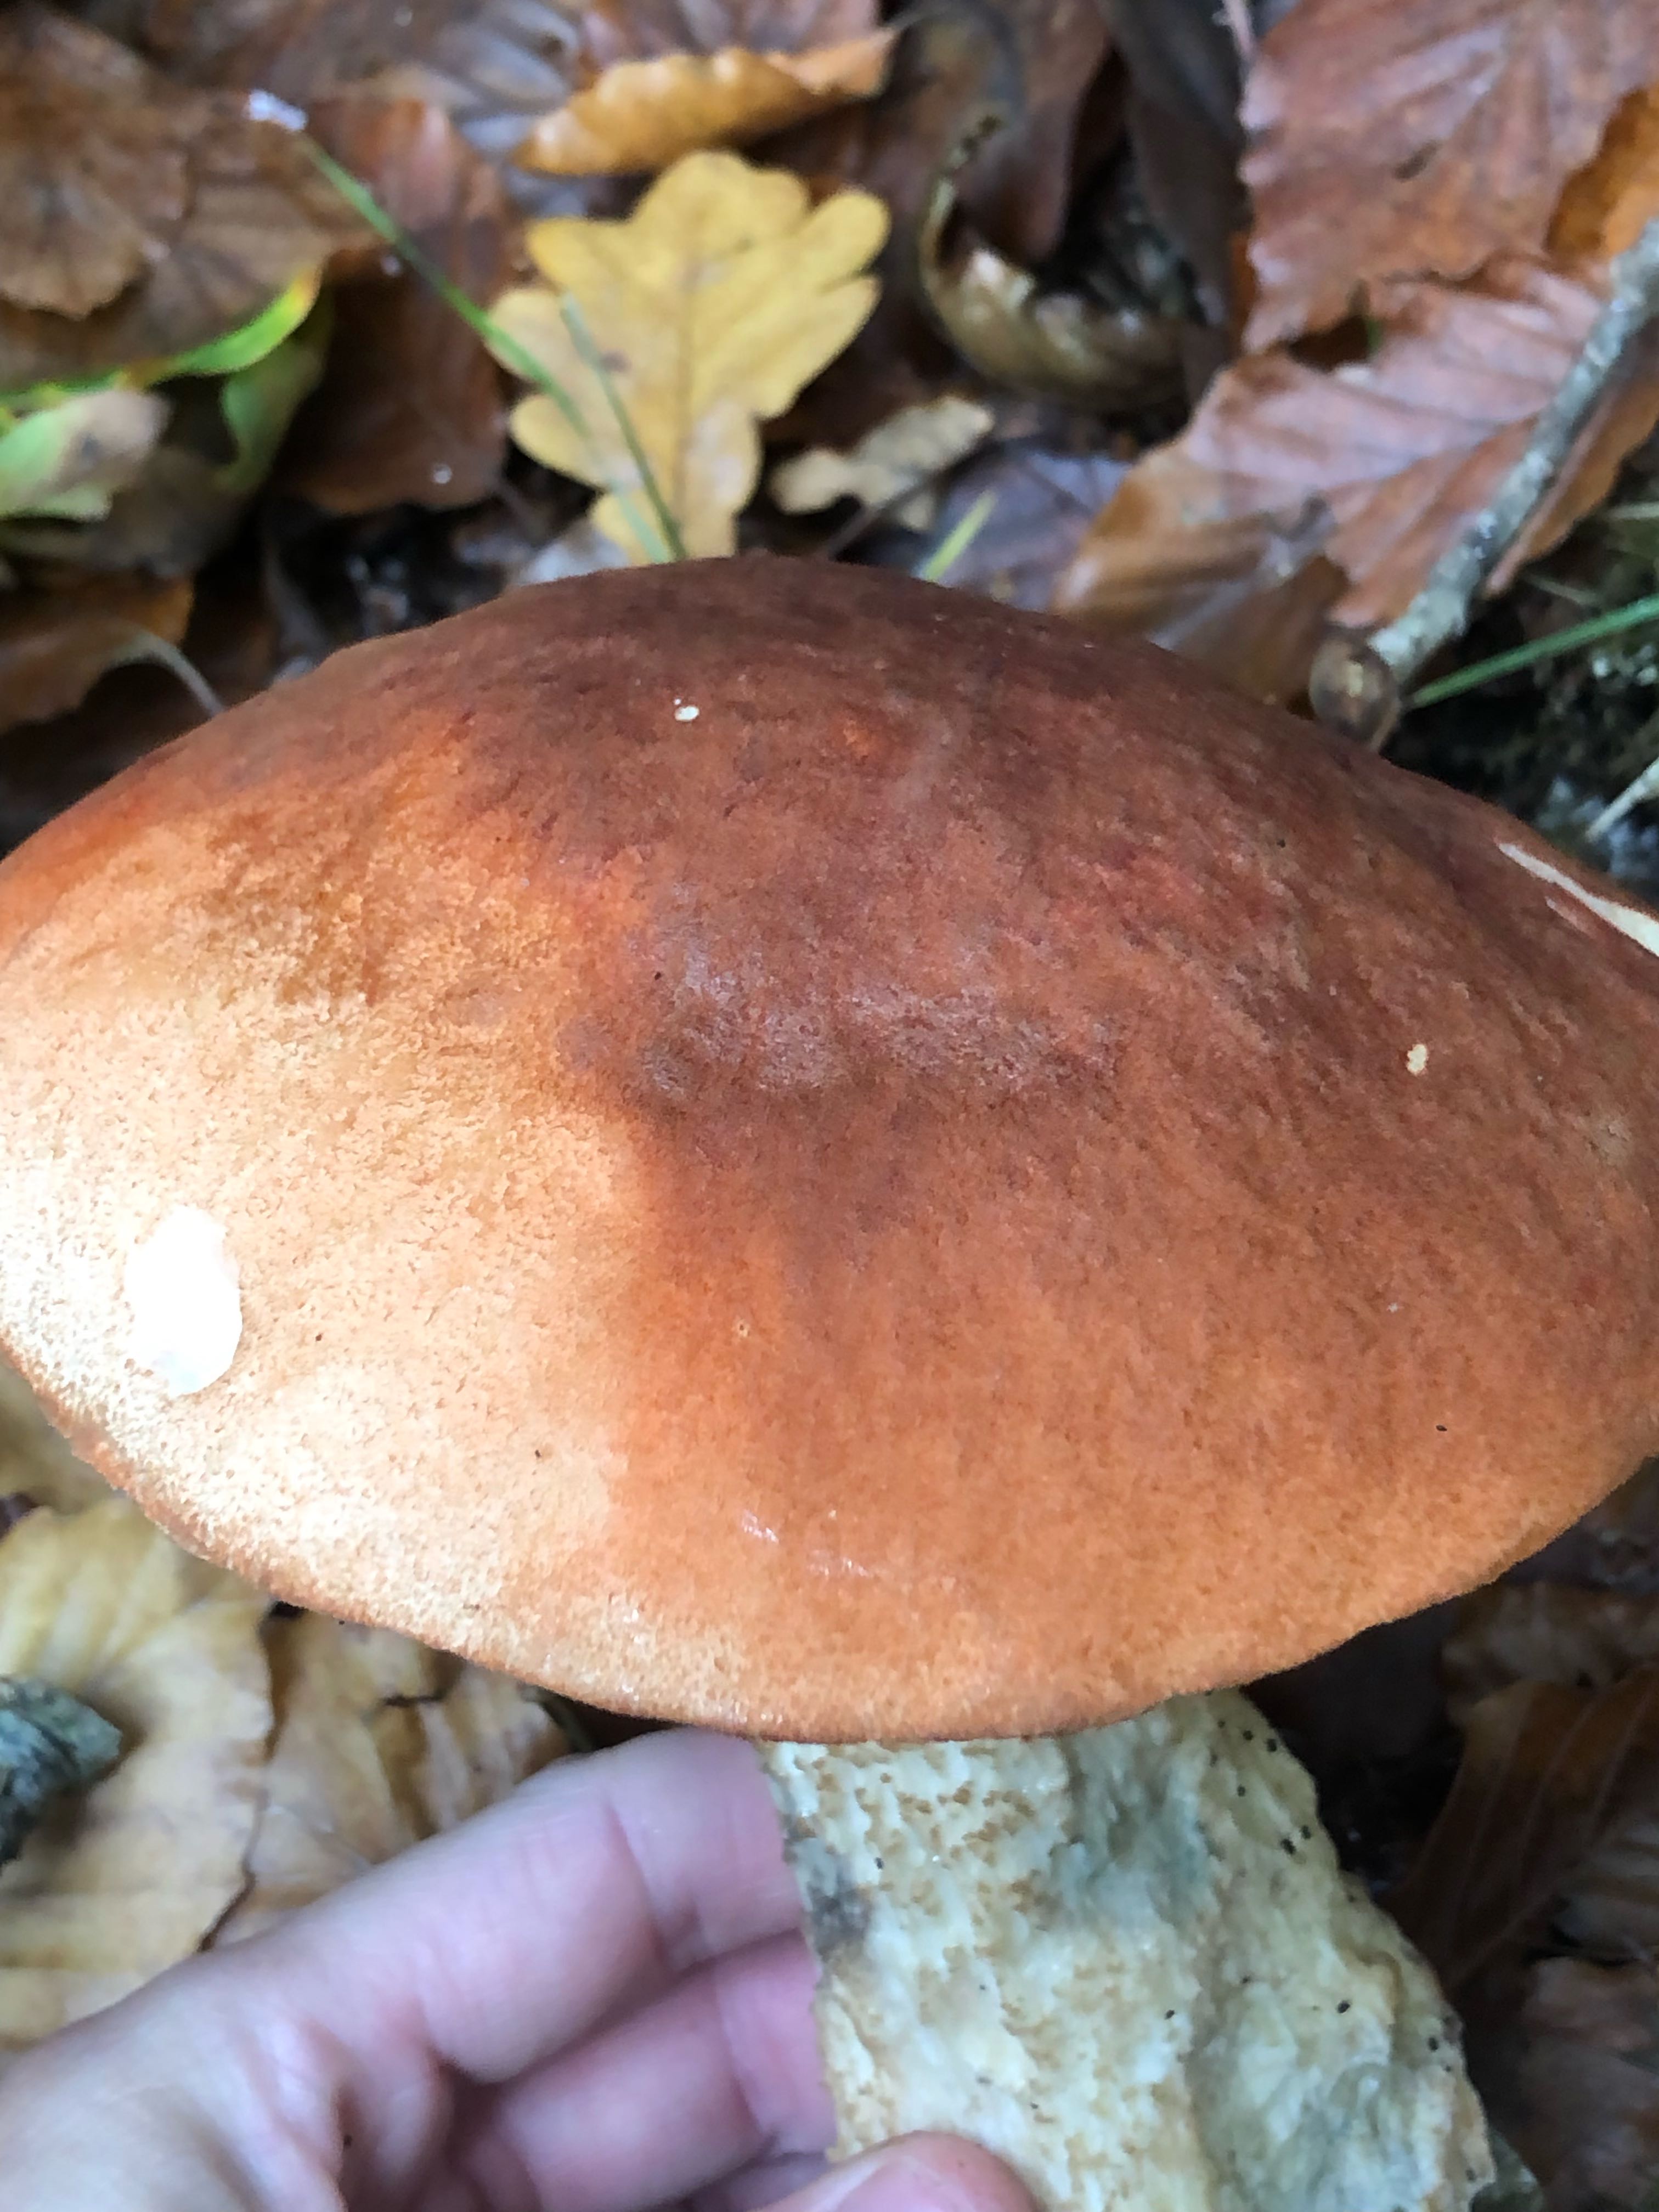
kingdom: Fungi
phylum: Basidiomycota
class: Agaricomycetes
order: Boletales
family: Boletaceae
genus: Leccinum
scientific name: Leccinum aurantiacum
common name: rustrød skælrørhat
